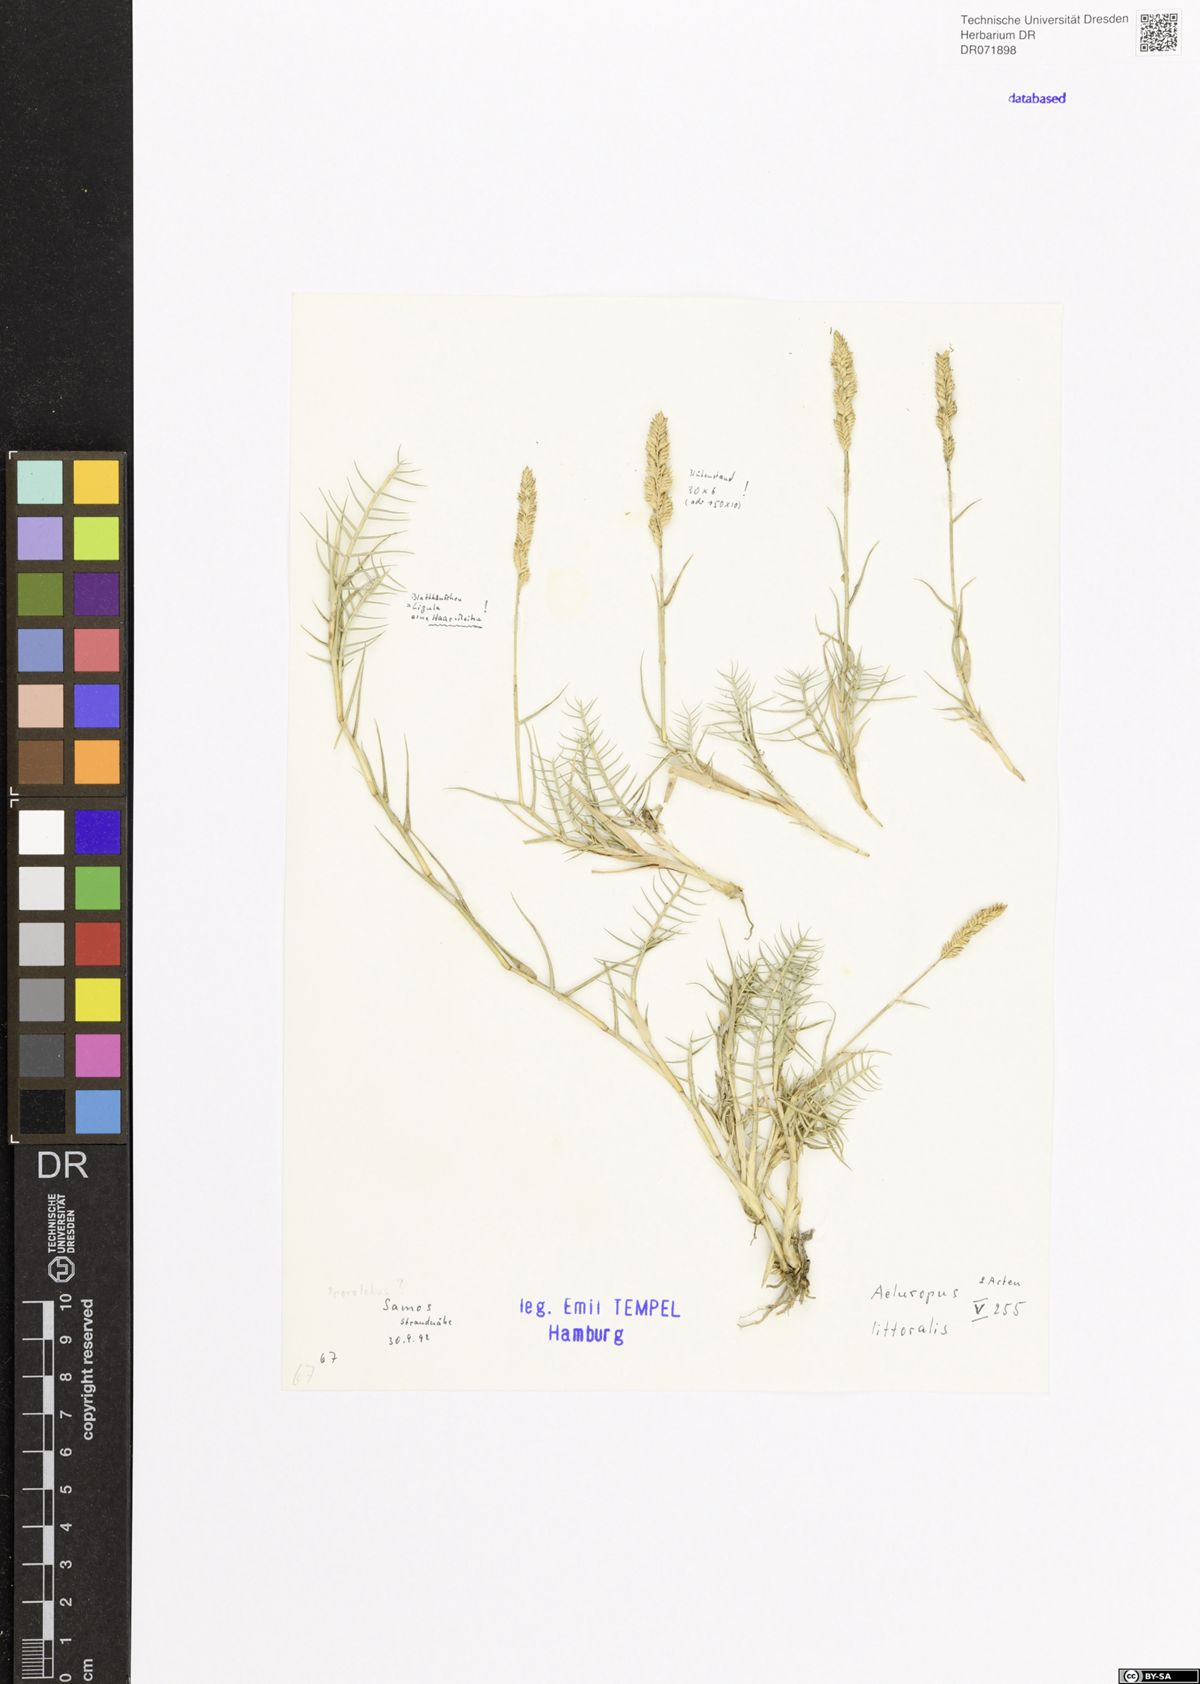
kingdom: Plantae
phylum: Tracheophyta
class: Liliopsida
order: Poales
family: Poaceae
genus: Aeluropus
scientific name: Aeluropus littoralis
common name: Indian walnut
